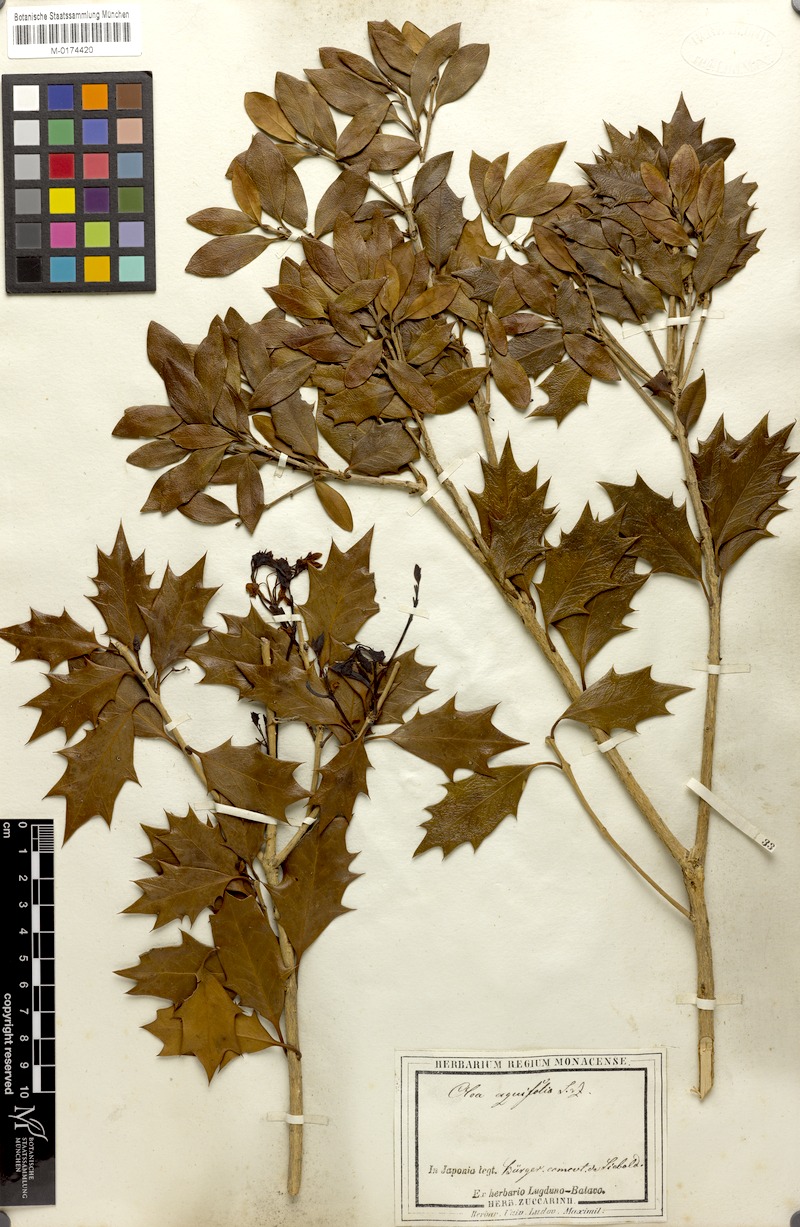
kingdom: Plantae
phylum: Tracheophyta
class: Magnoliopsida
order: Lamiales
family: Oleaceae
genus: Osmanthus
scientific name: Osmanthus heterophyllus
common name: Holly osmanthus
